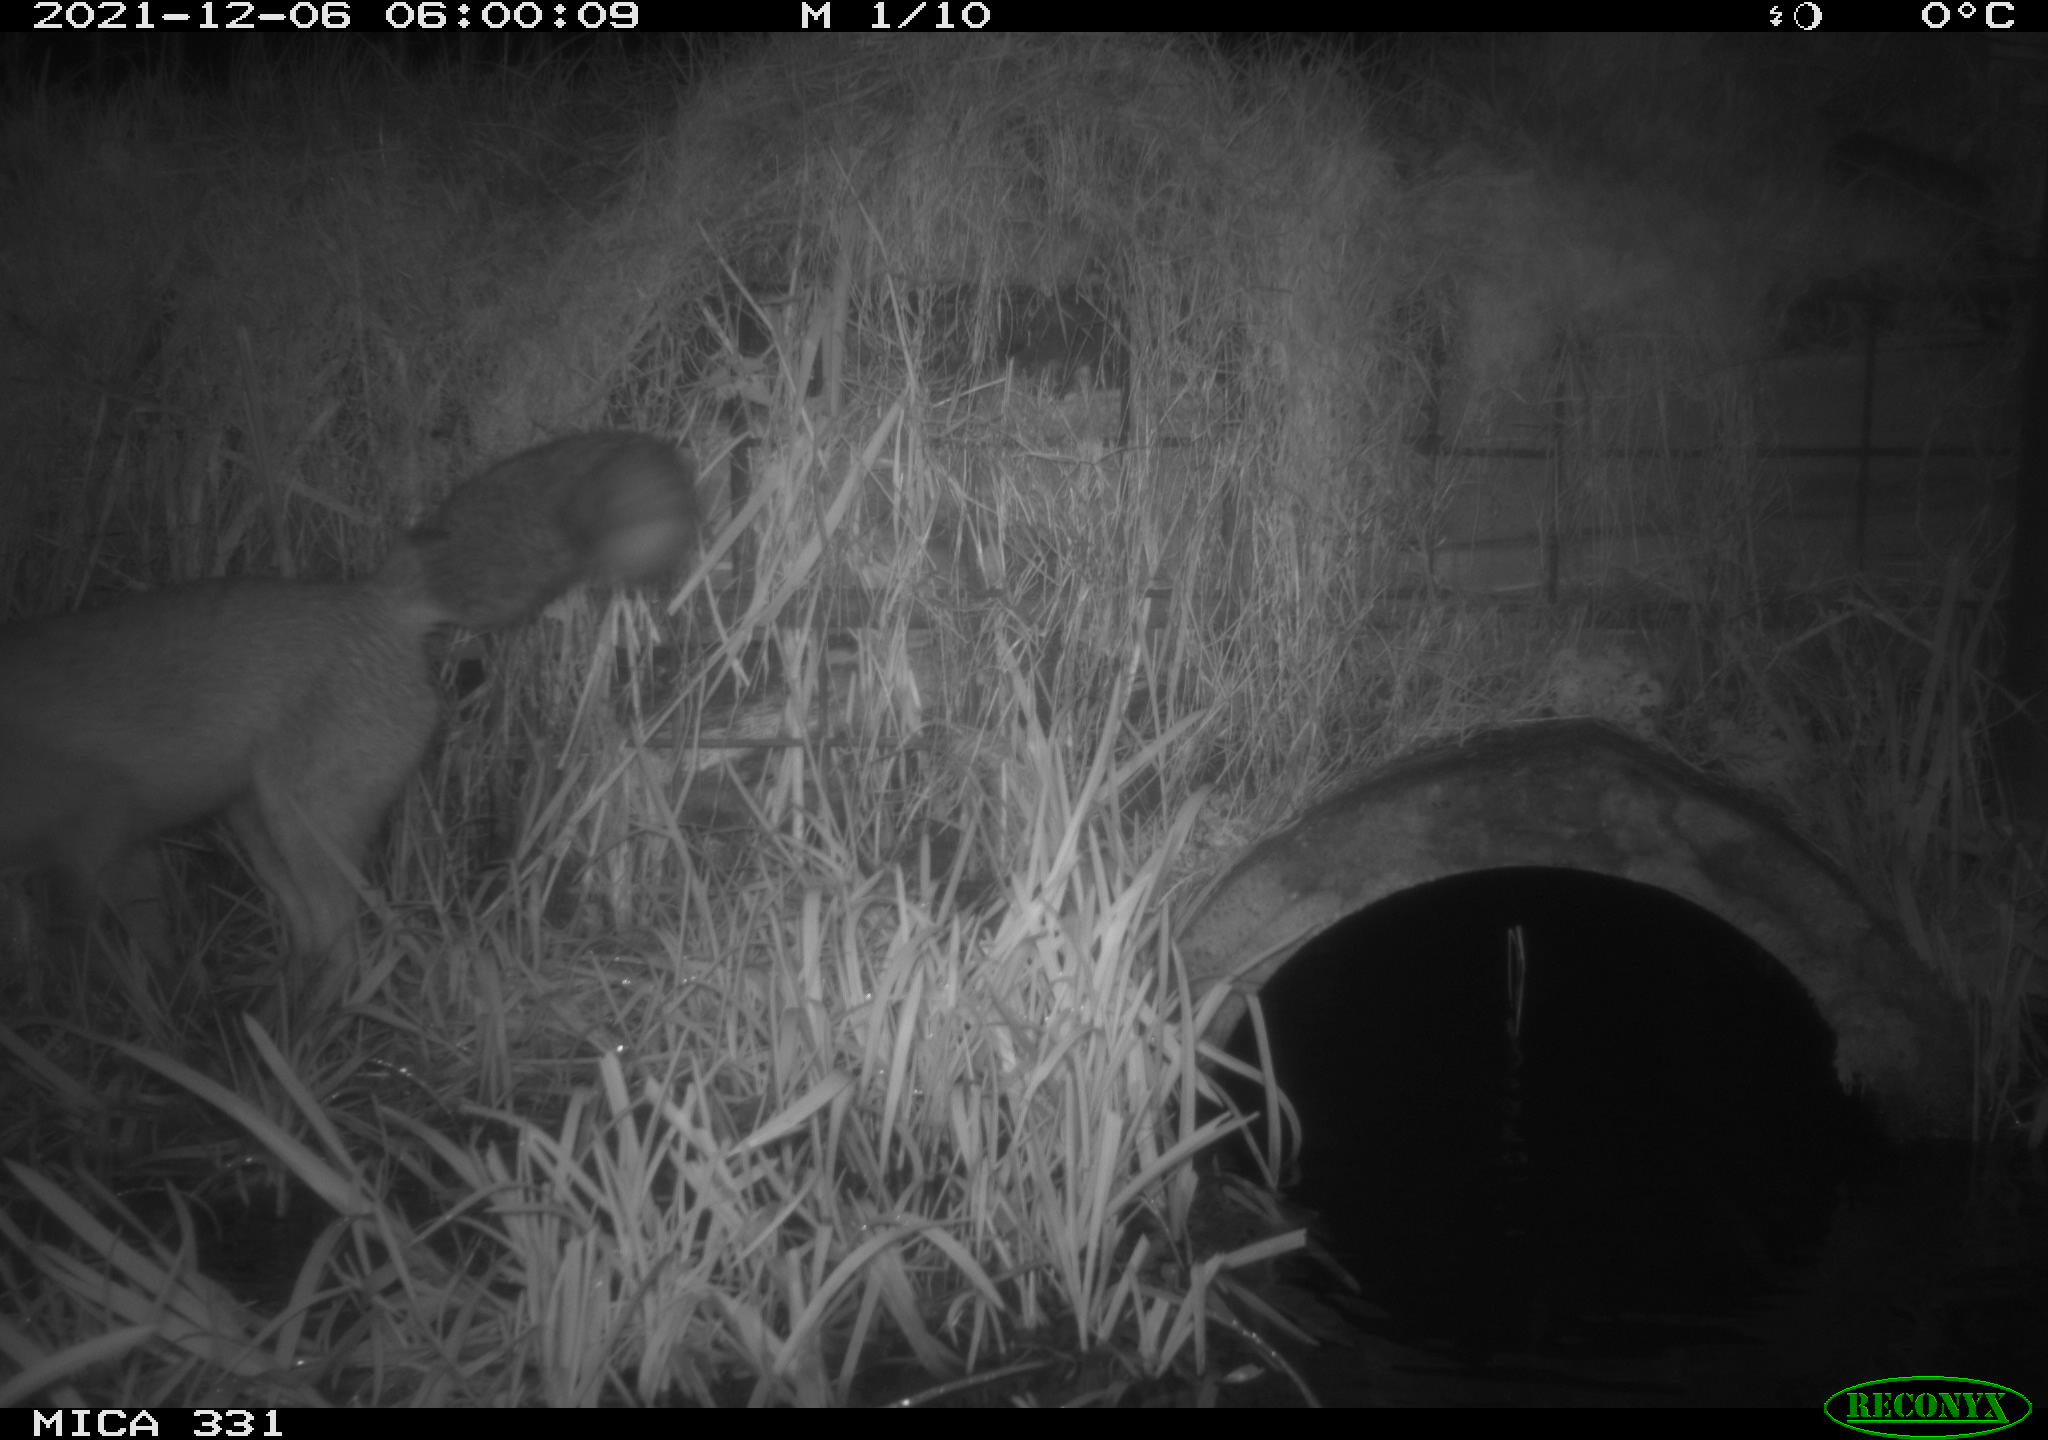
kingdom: Animalia
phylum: Chordata
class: Mammalia
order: Carnivora
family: Canidae
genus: Vulpes
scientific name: Vulpes vulpes
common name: Red fox
